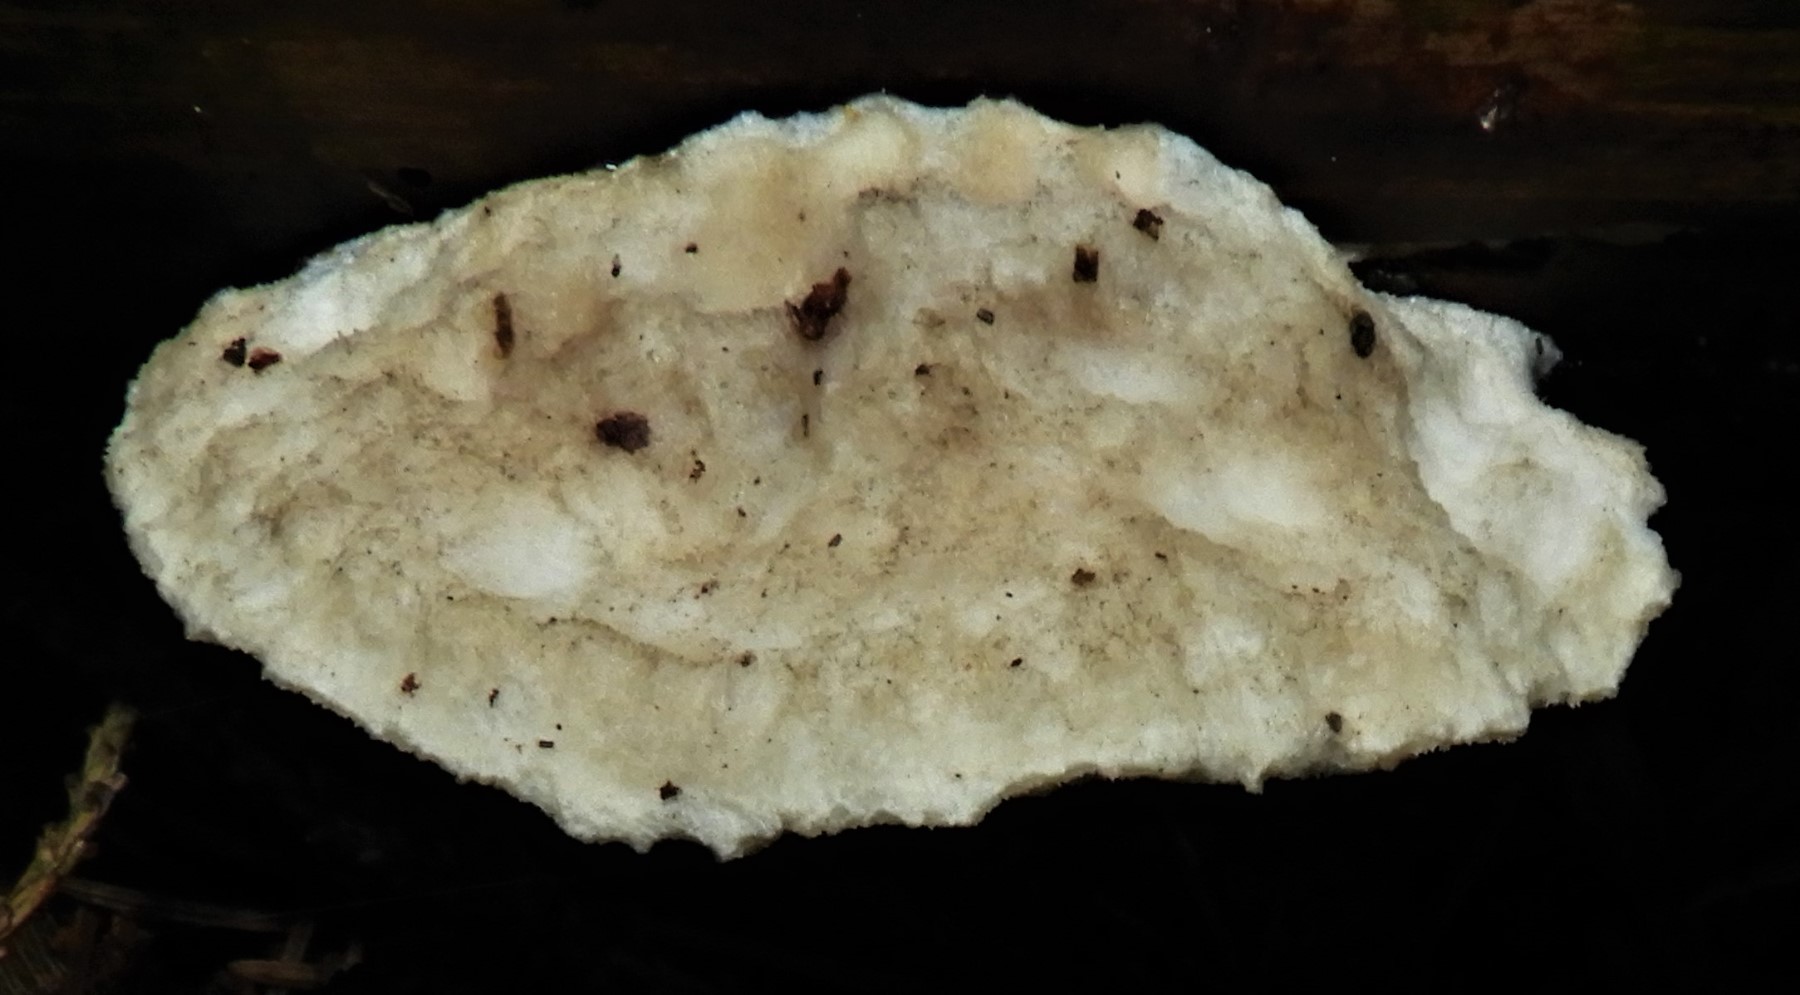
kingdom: Fungi
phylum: Basidiomycota
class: Agaricomycetes
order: Polyporales
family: Dacryobolaceae
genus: Postia
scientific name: Postia
